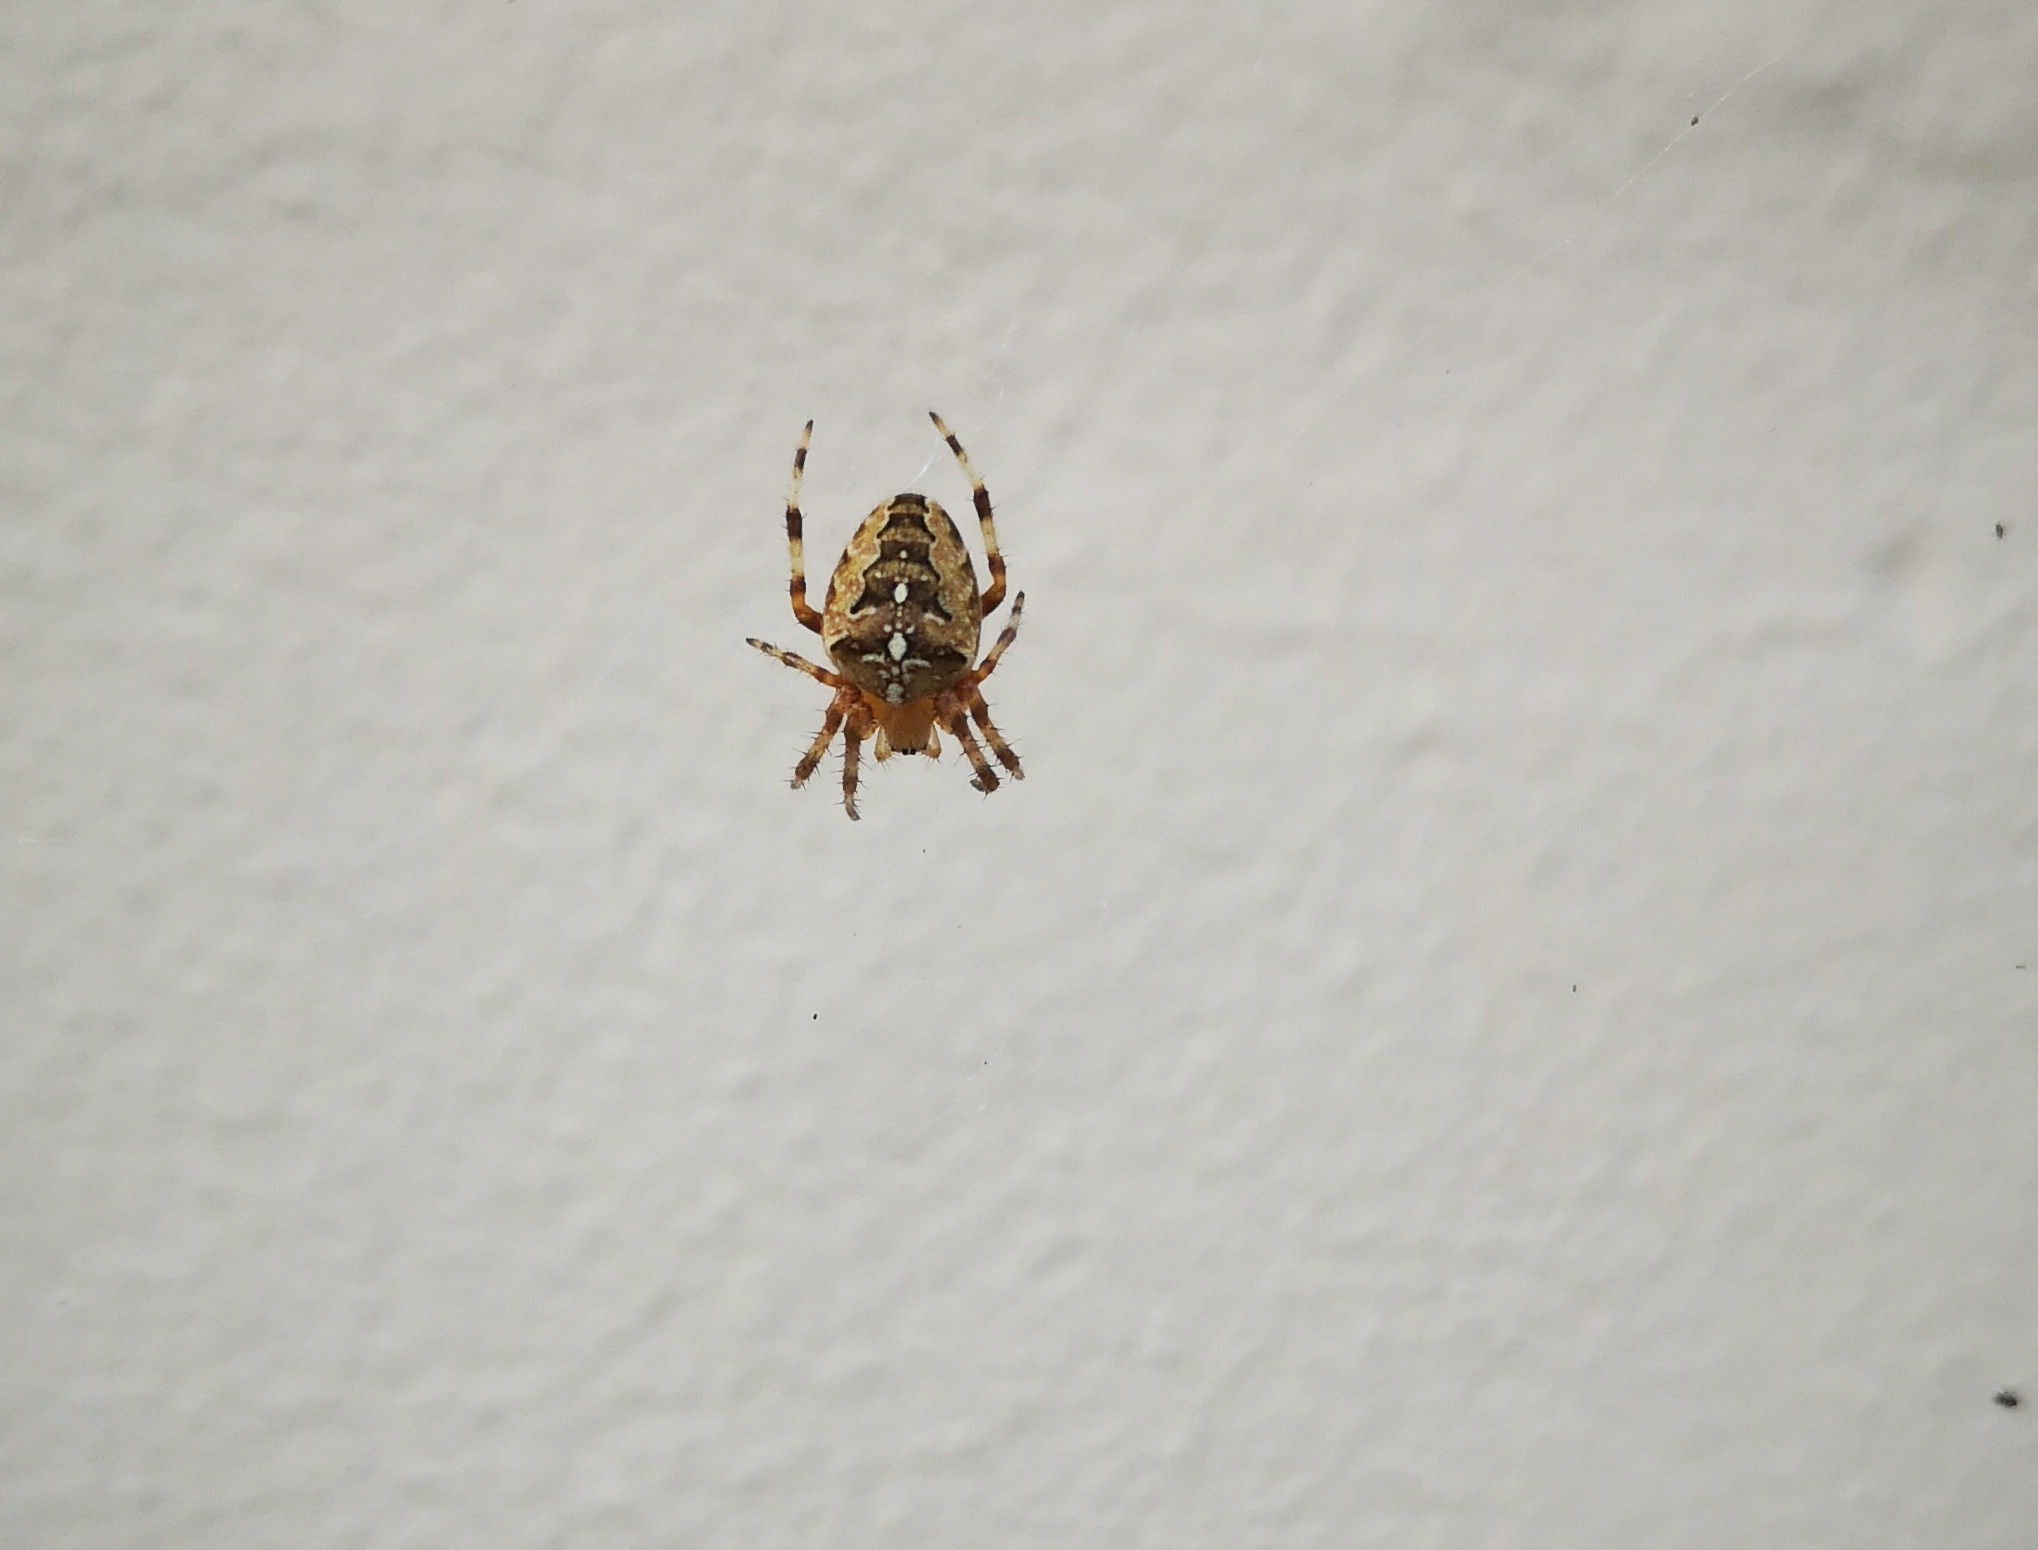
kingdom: Animalia
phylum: Arthropoda
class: Arachnida
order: Araneae
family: Araneidae
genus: Araneus
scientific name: Araneus diadematus
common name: Korsedderkop
